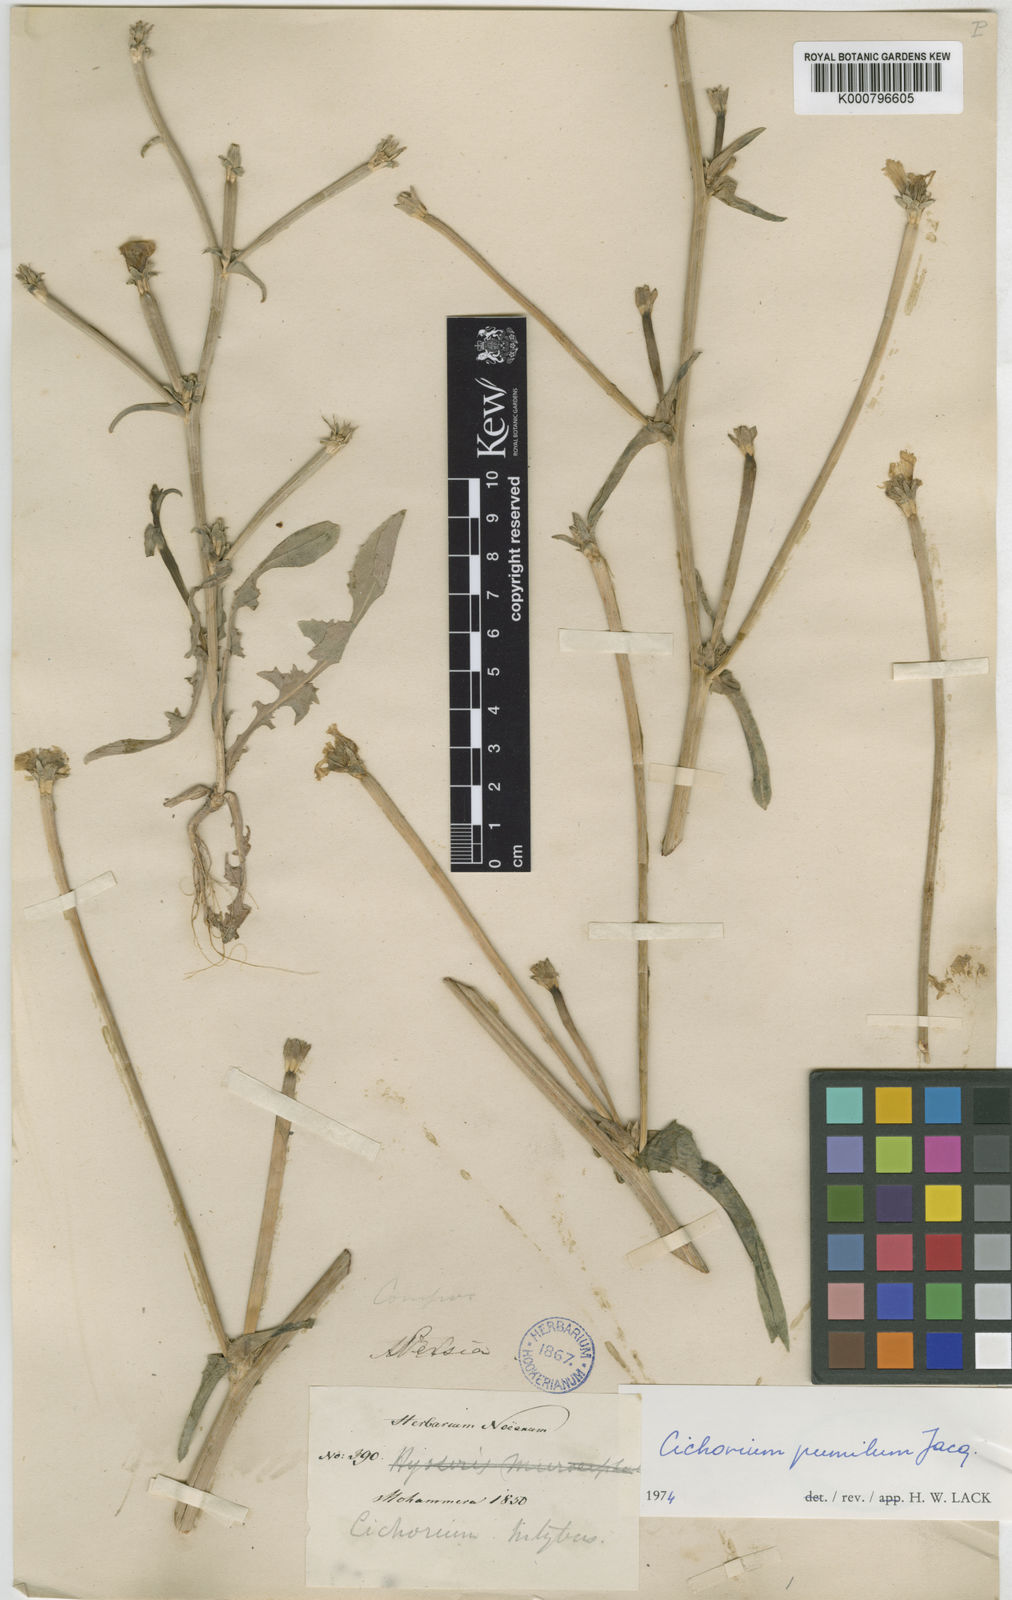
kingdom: Plantae
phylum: Tracheophyta
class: Magnoliopsida
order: Asterales
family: Asteraceae
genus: Cichorium
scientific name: Cichorium pumilum
